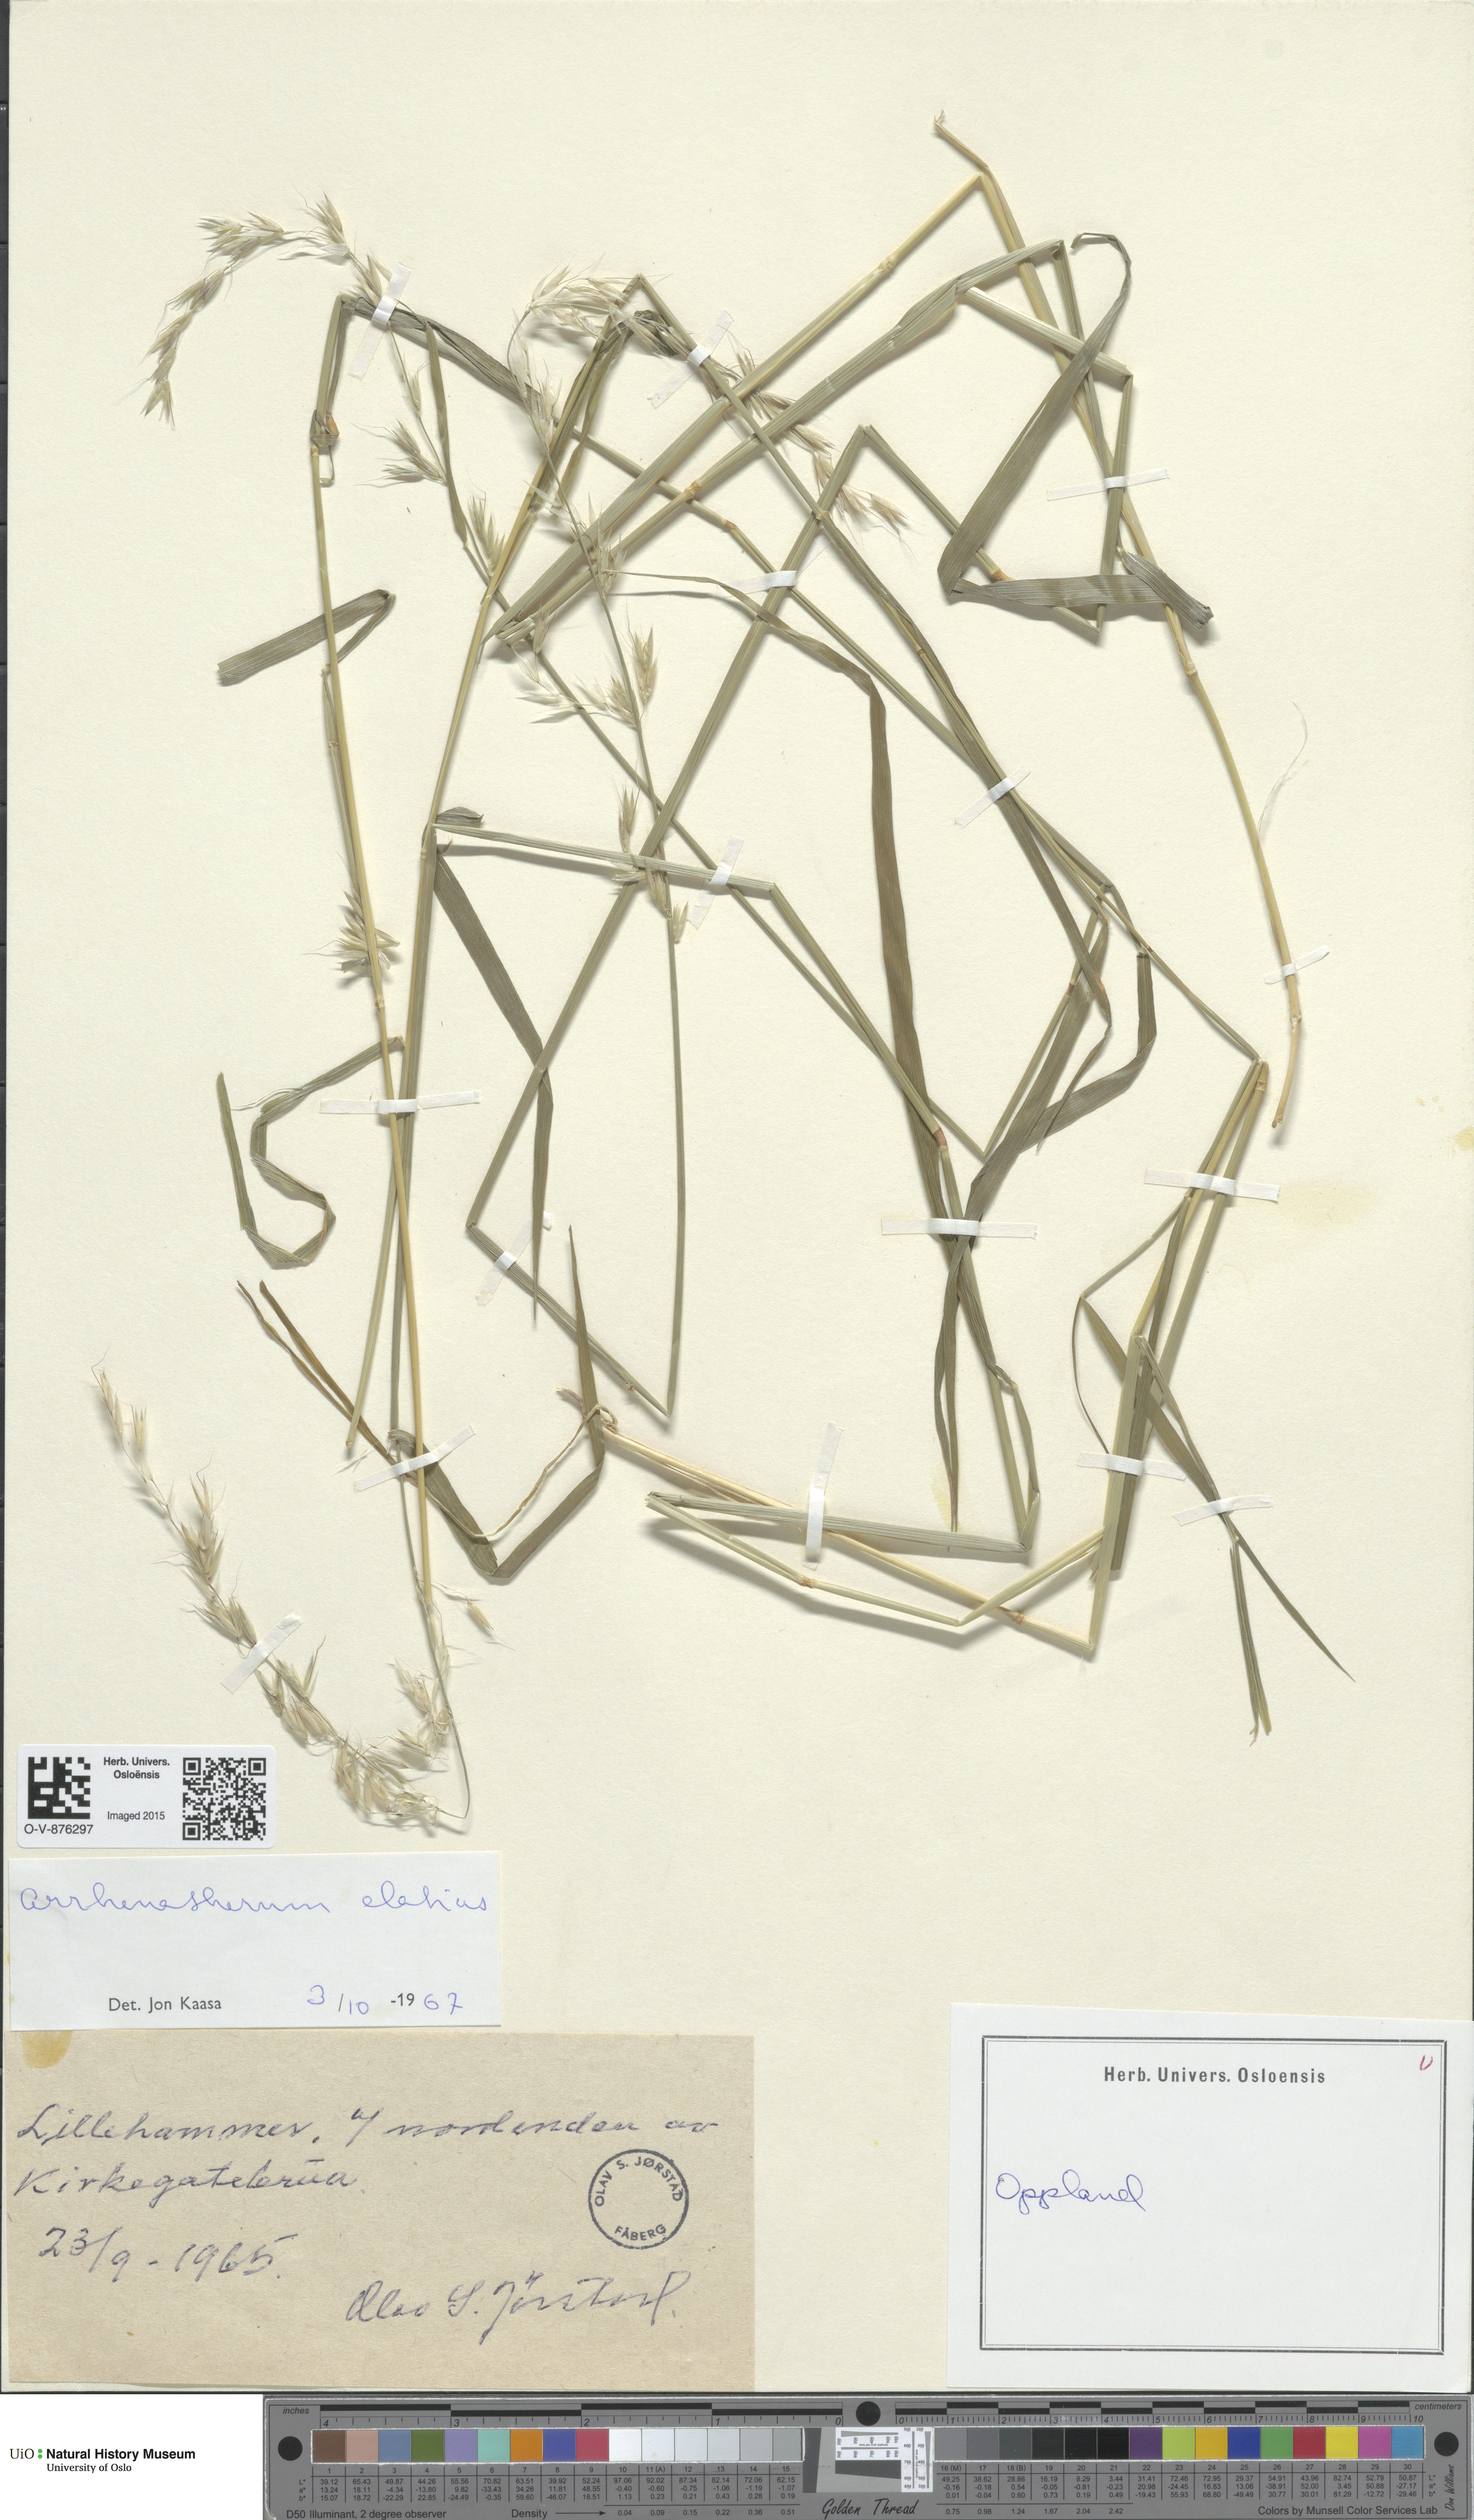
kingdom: Plantae
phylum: Tracheophyta
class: Liliopsida
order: Poales
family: Poaceae
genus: Arrhenatherum
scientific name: Arrhenatherum elatius
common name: Tall oatgrass
